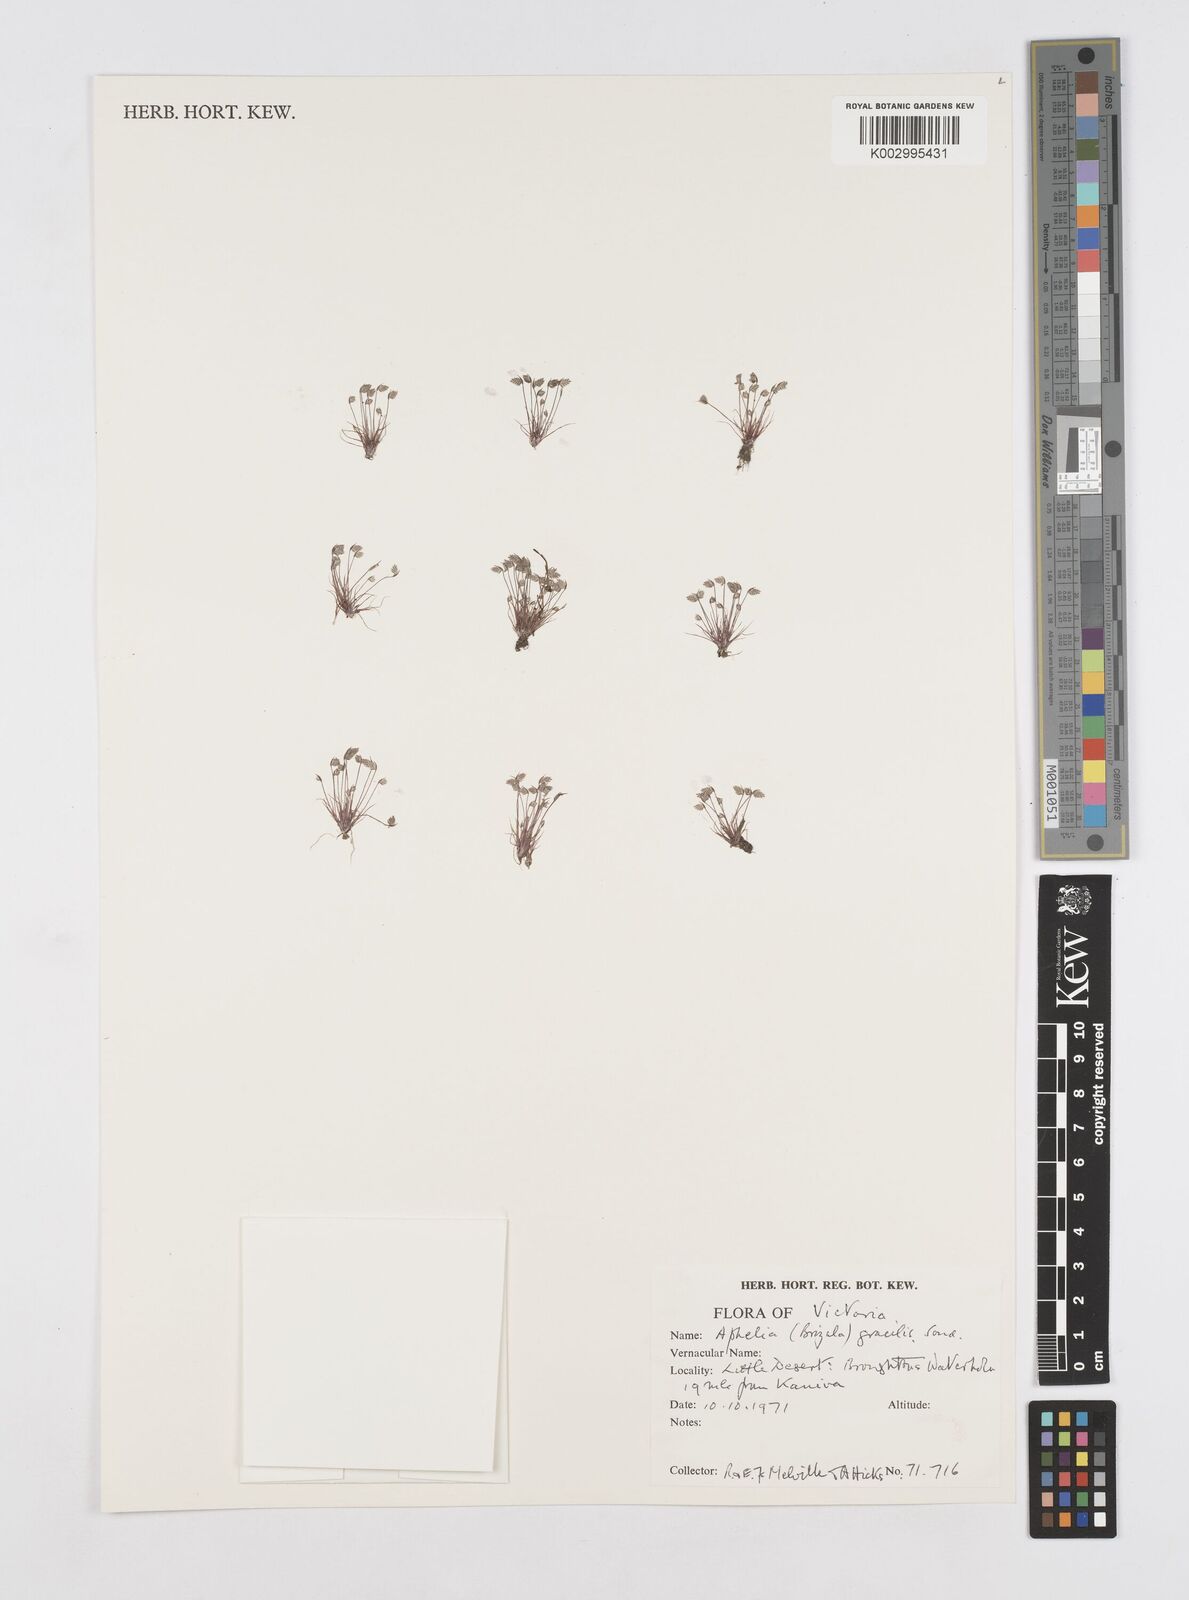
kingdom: Plantae
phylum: Tracheophyta
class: Liliopsida
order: Poales
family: Restionaceae
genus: Aphelia
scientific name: Aphelia gracilis
